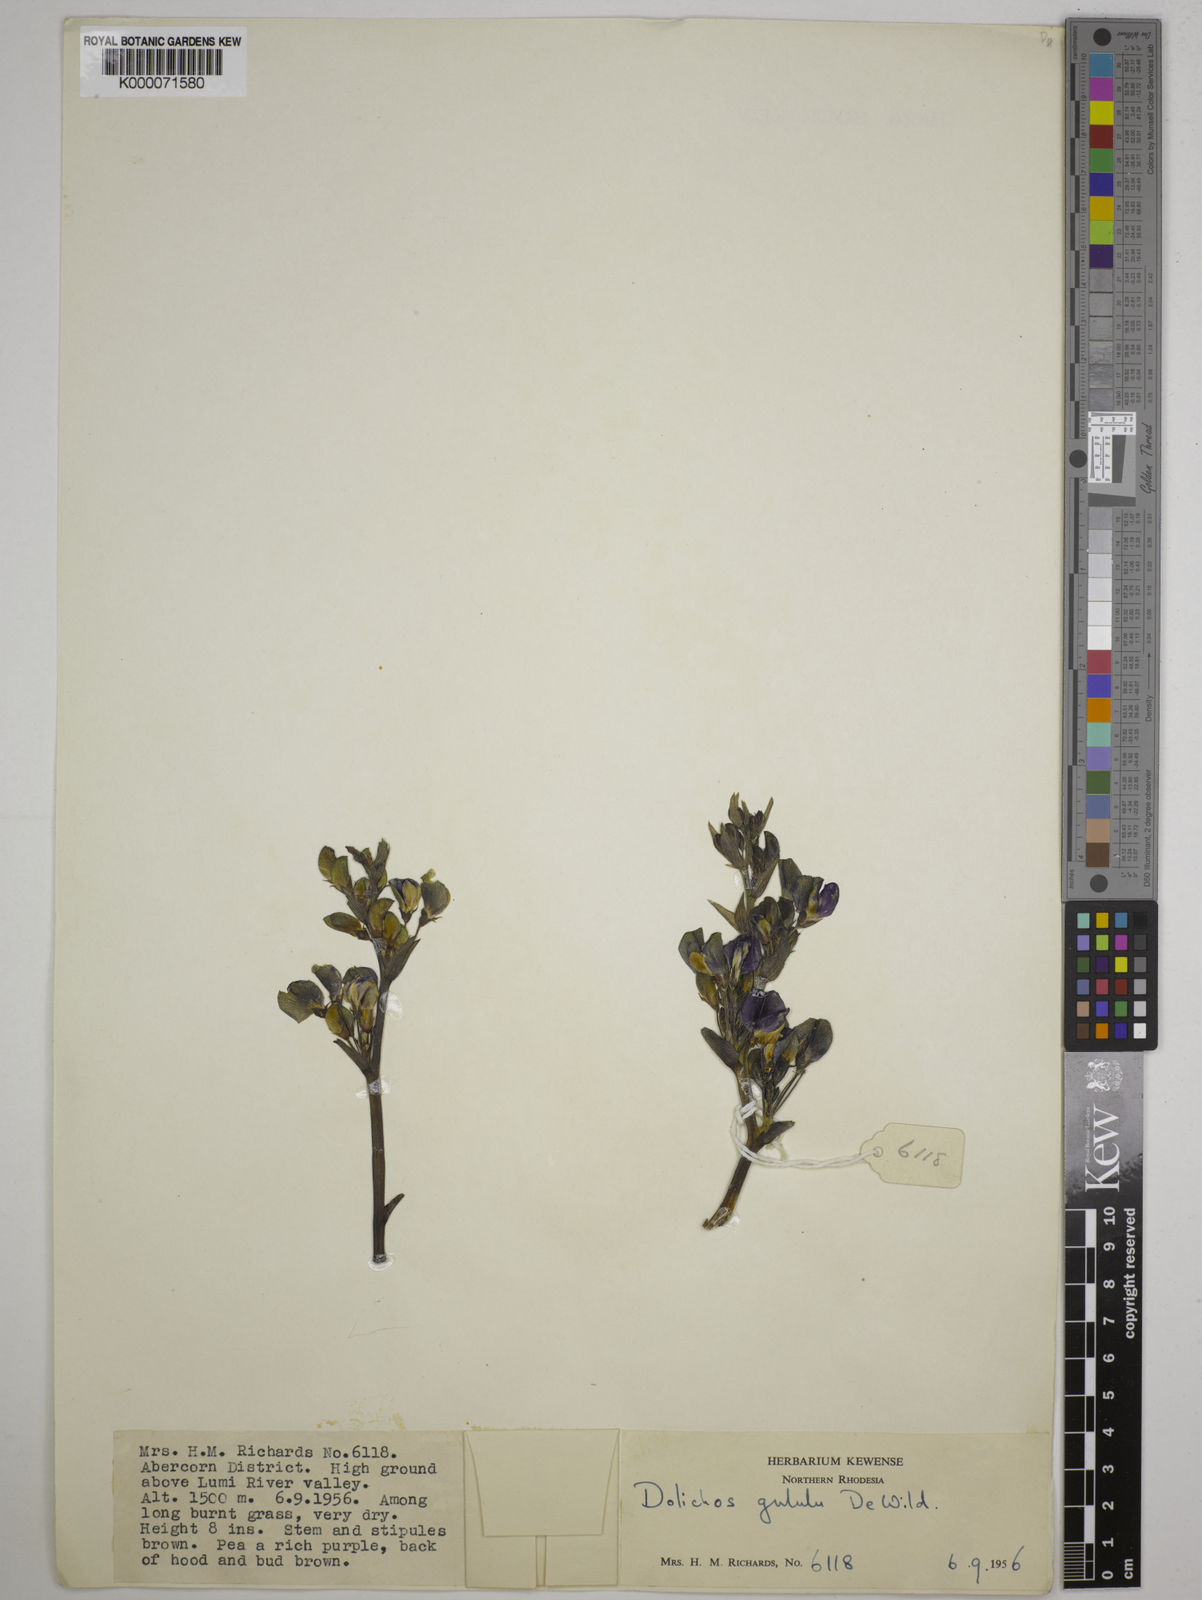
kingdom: Plantae
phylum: Tracheophyta
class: Magnoliopsida
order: Fabales
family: Fabaceae
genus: Dolichos
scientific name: Dolichos gululu
